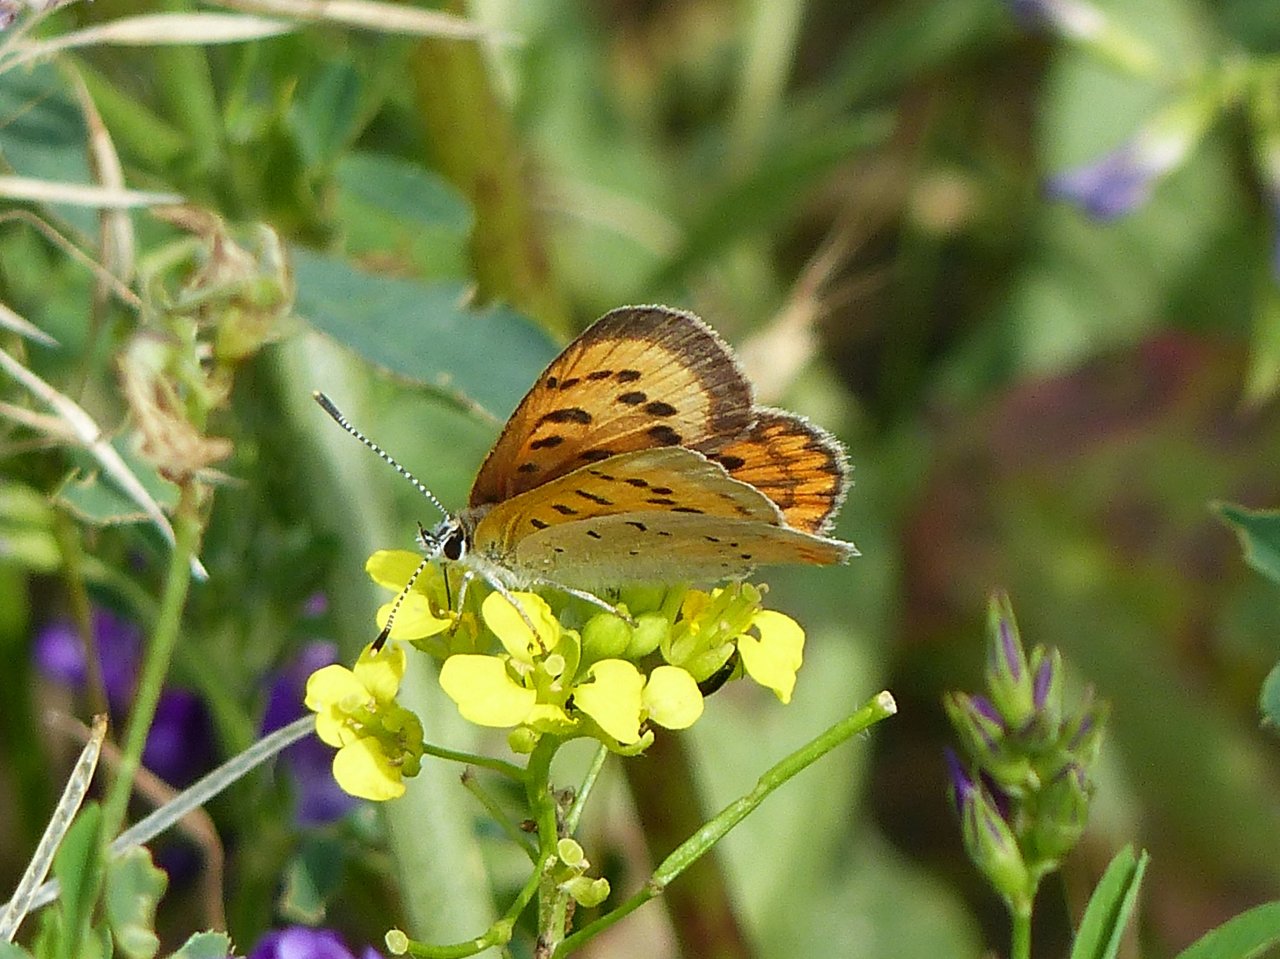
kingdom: Animalia
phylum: Arthropoda
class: Insecta
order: Lepidoptera
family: Sesiidae
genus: Sesia
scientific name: Sesia Lycaena helloides
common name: Purplish Copper
